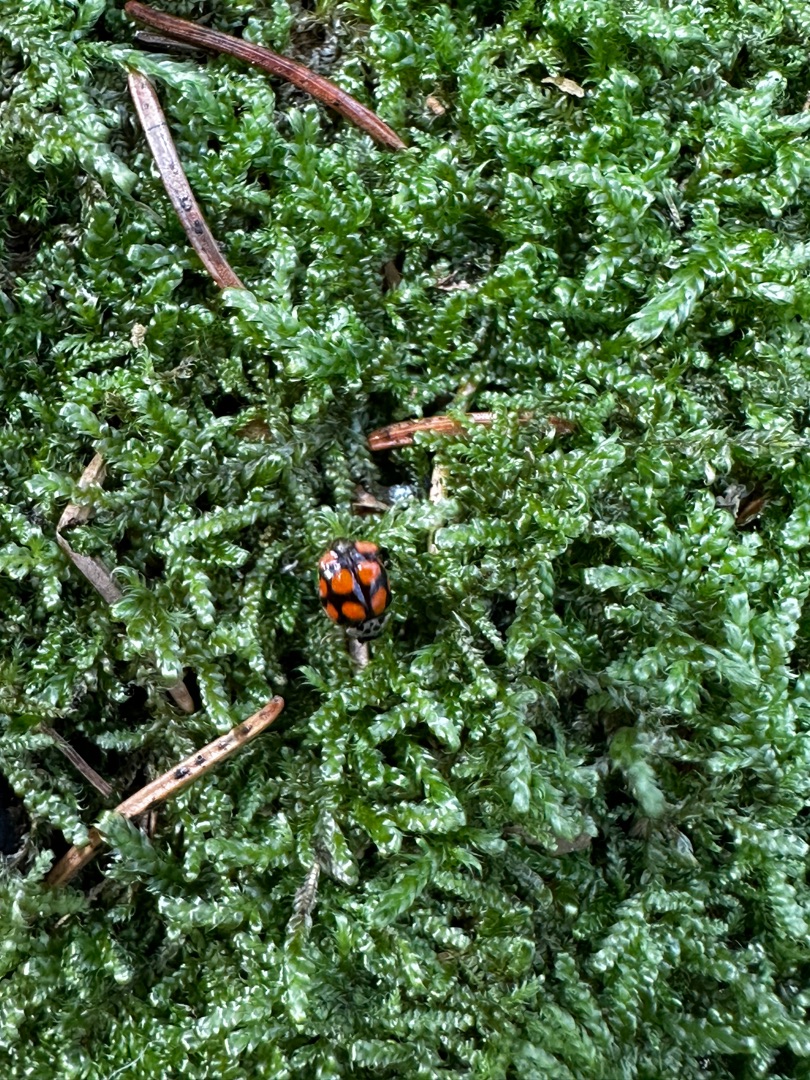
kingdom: Animalia
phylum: Arthropoda
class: Insecta
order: Coleoptera
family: Coccinellidae
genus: Adalia
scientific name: Adalia decempunctata
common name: Tiplettet mariehøne
